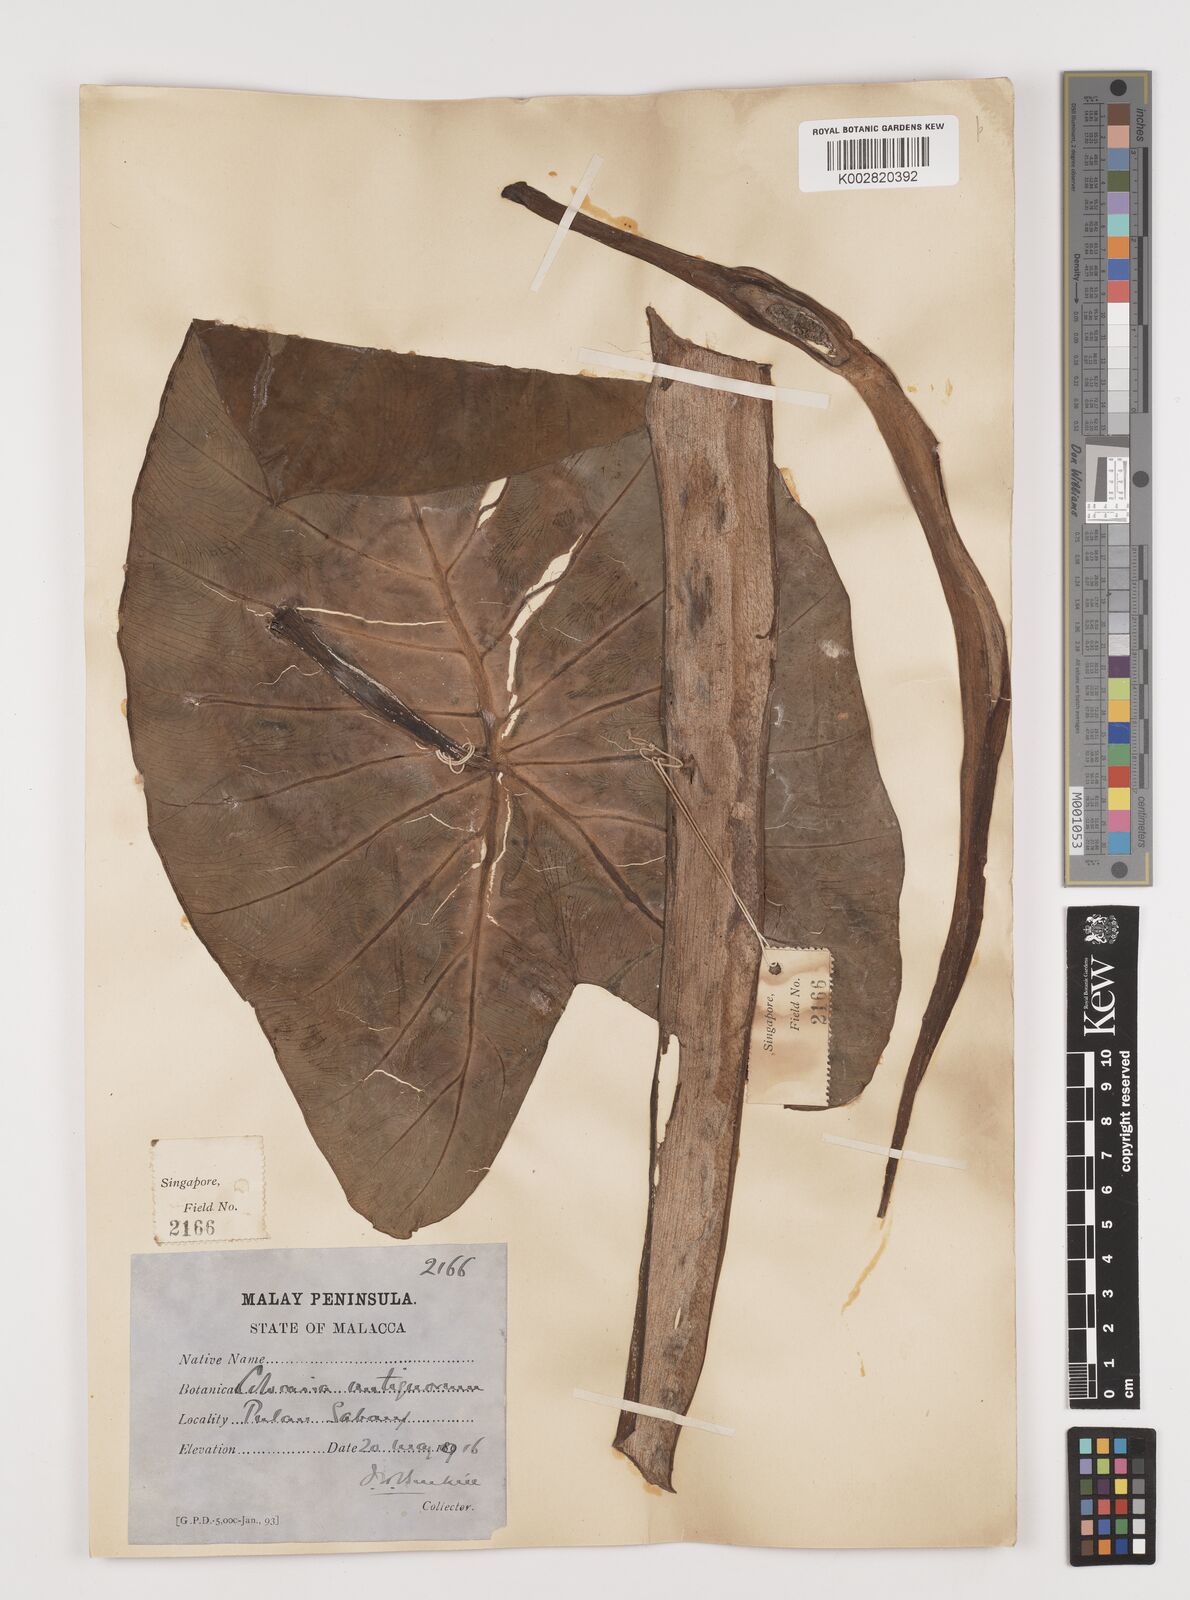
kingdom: Plantae
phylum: Tracheophyta
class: Liliopsida
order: Alismatales
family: Araceae
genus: Colocasia
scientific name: Colocasia esculenta
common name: Taro
